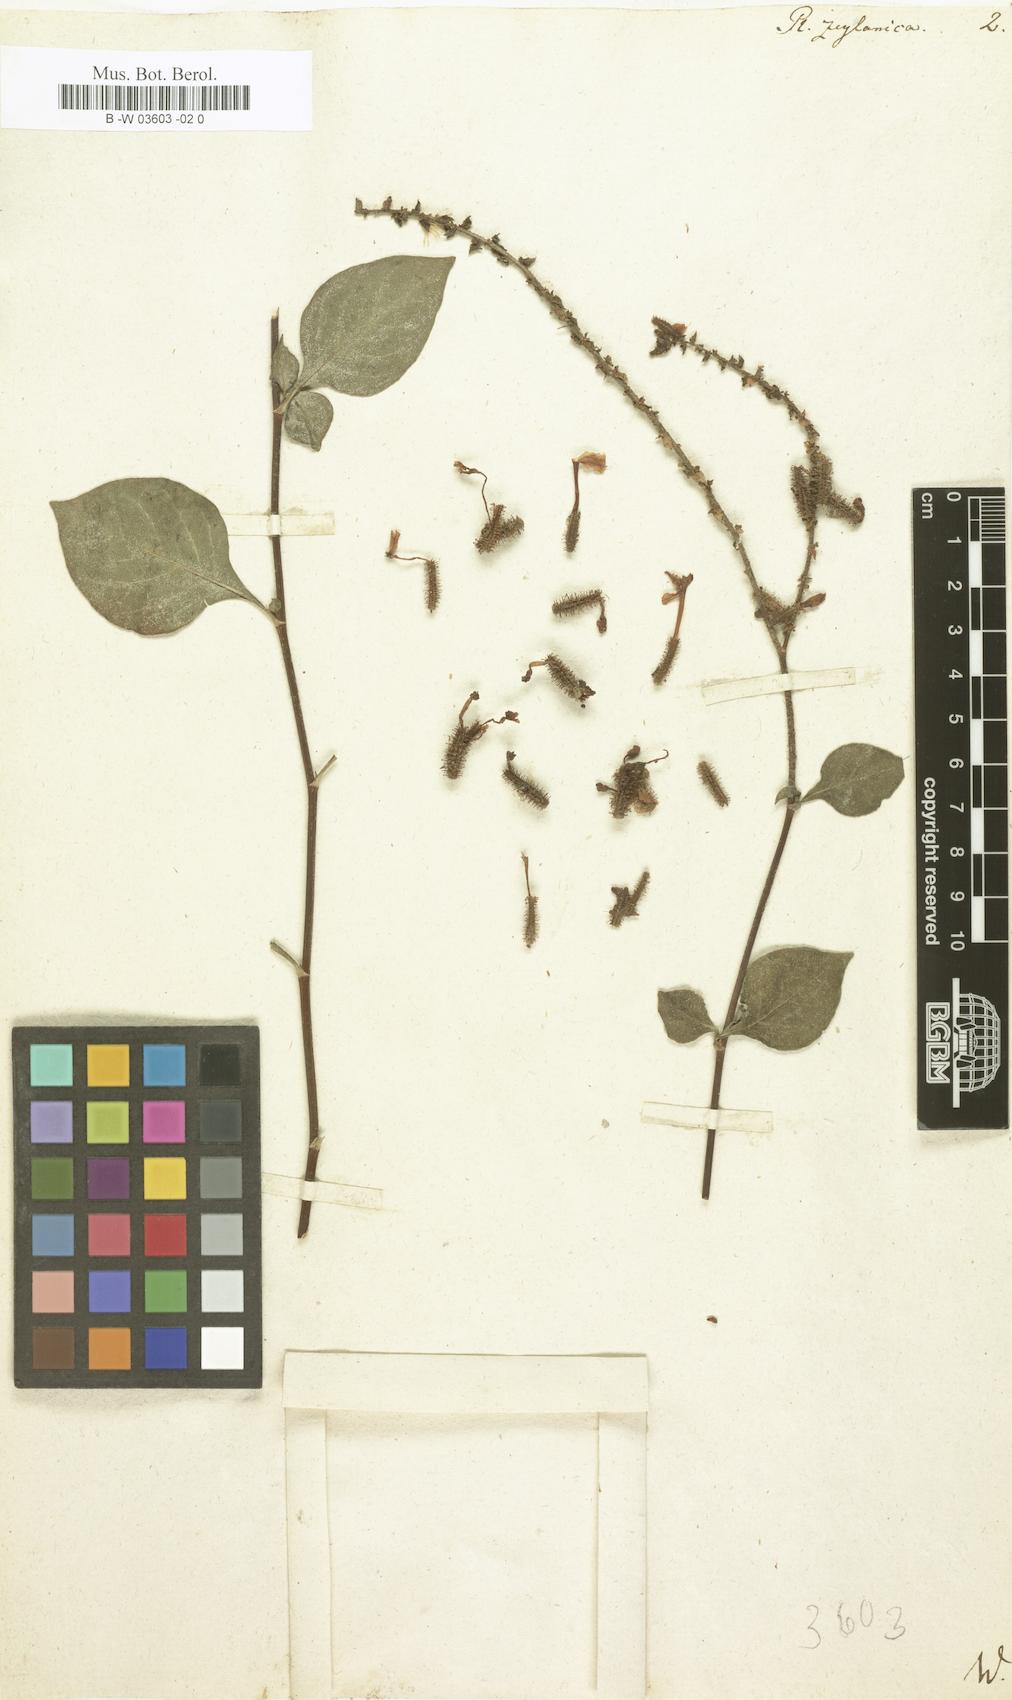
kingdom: Plantae
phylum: Tracheophyta
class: Magnoliopsida
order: Caryophyllales
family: Plumbaginaceae
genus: Plumbago
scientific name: Plumbago zeylanica
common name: Doctorbush
